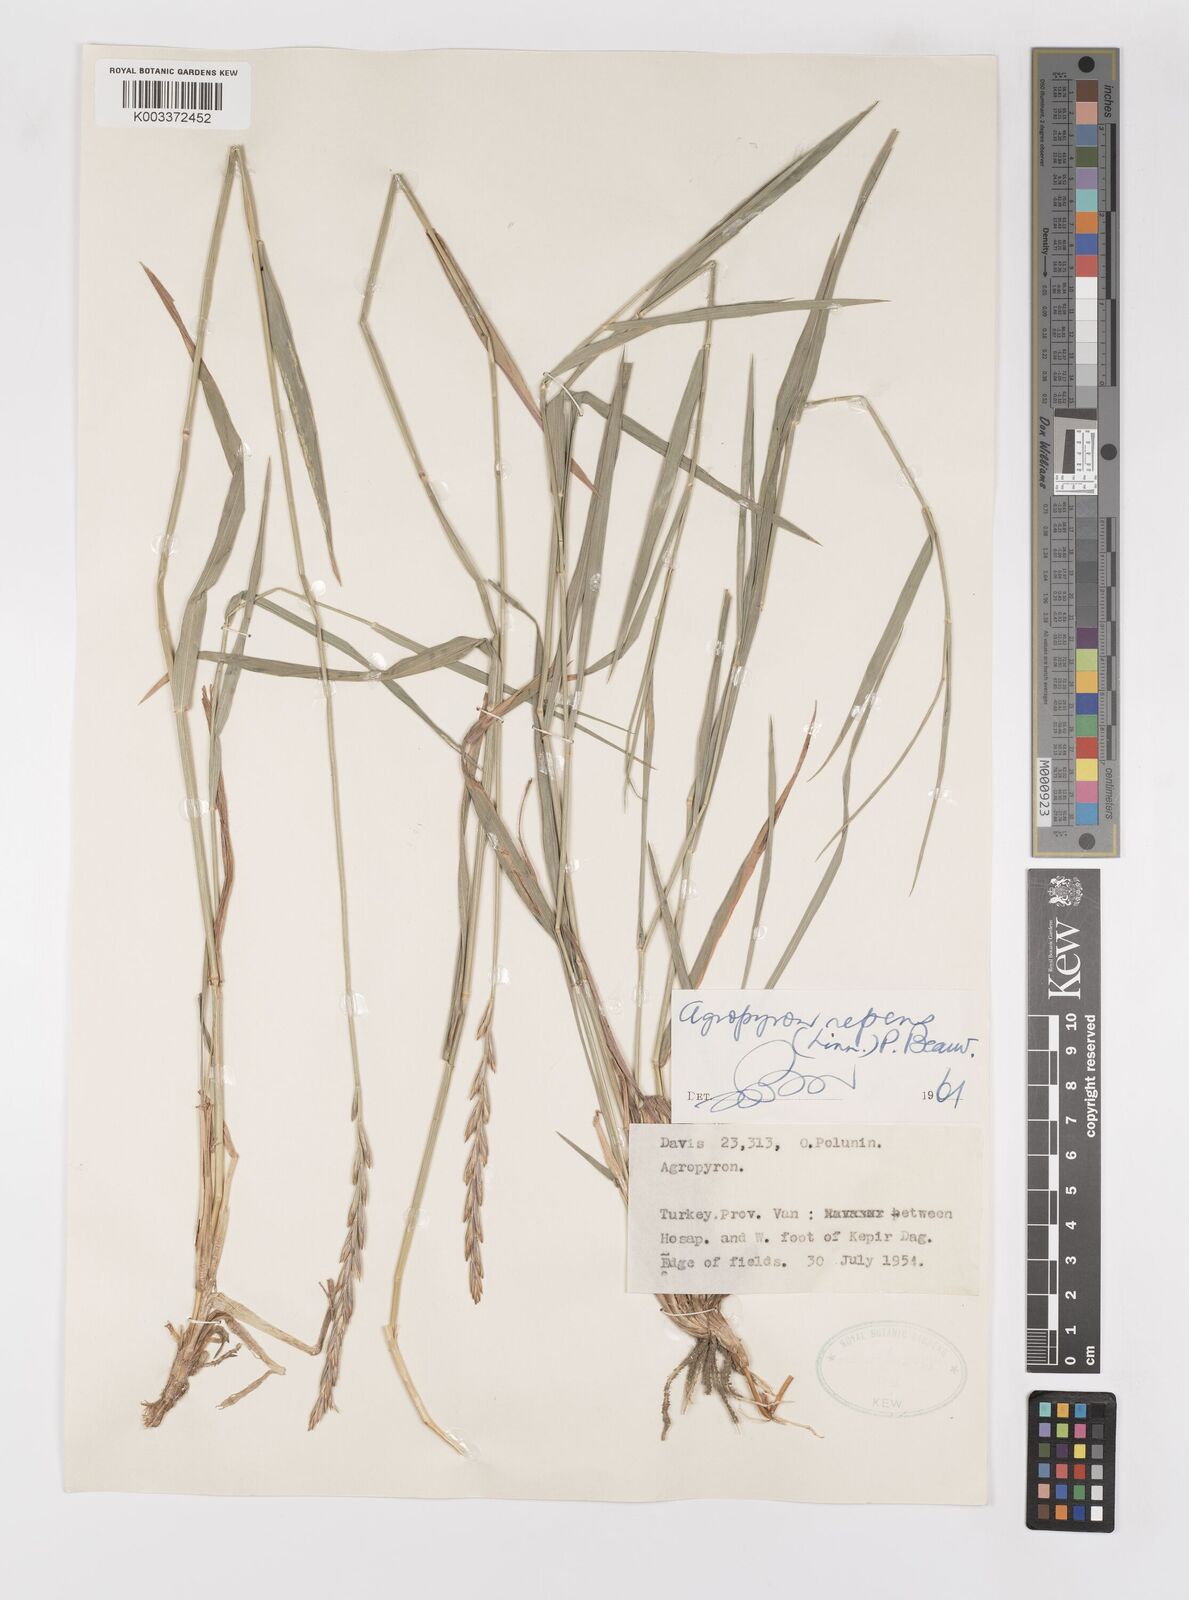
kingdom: Plantae
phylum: Tracheophyta
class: Liliopsida
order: Poales
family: Poaceae
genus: Elymus
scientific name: Elymus repens
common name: Quackgrass
